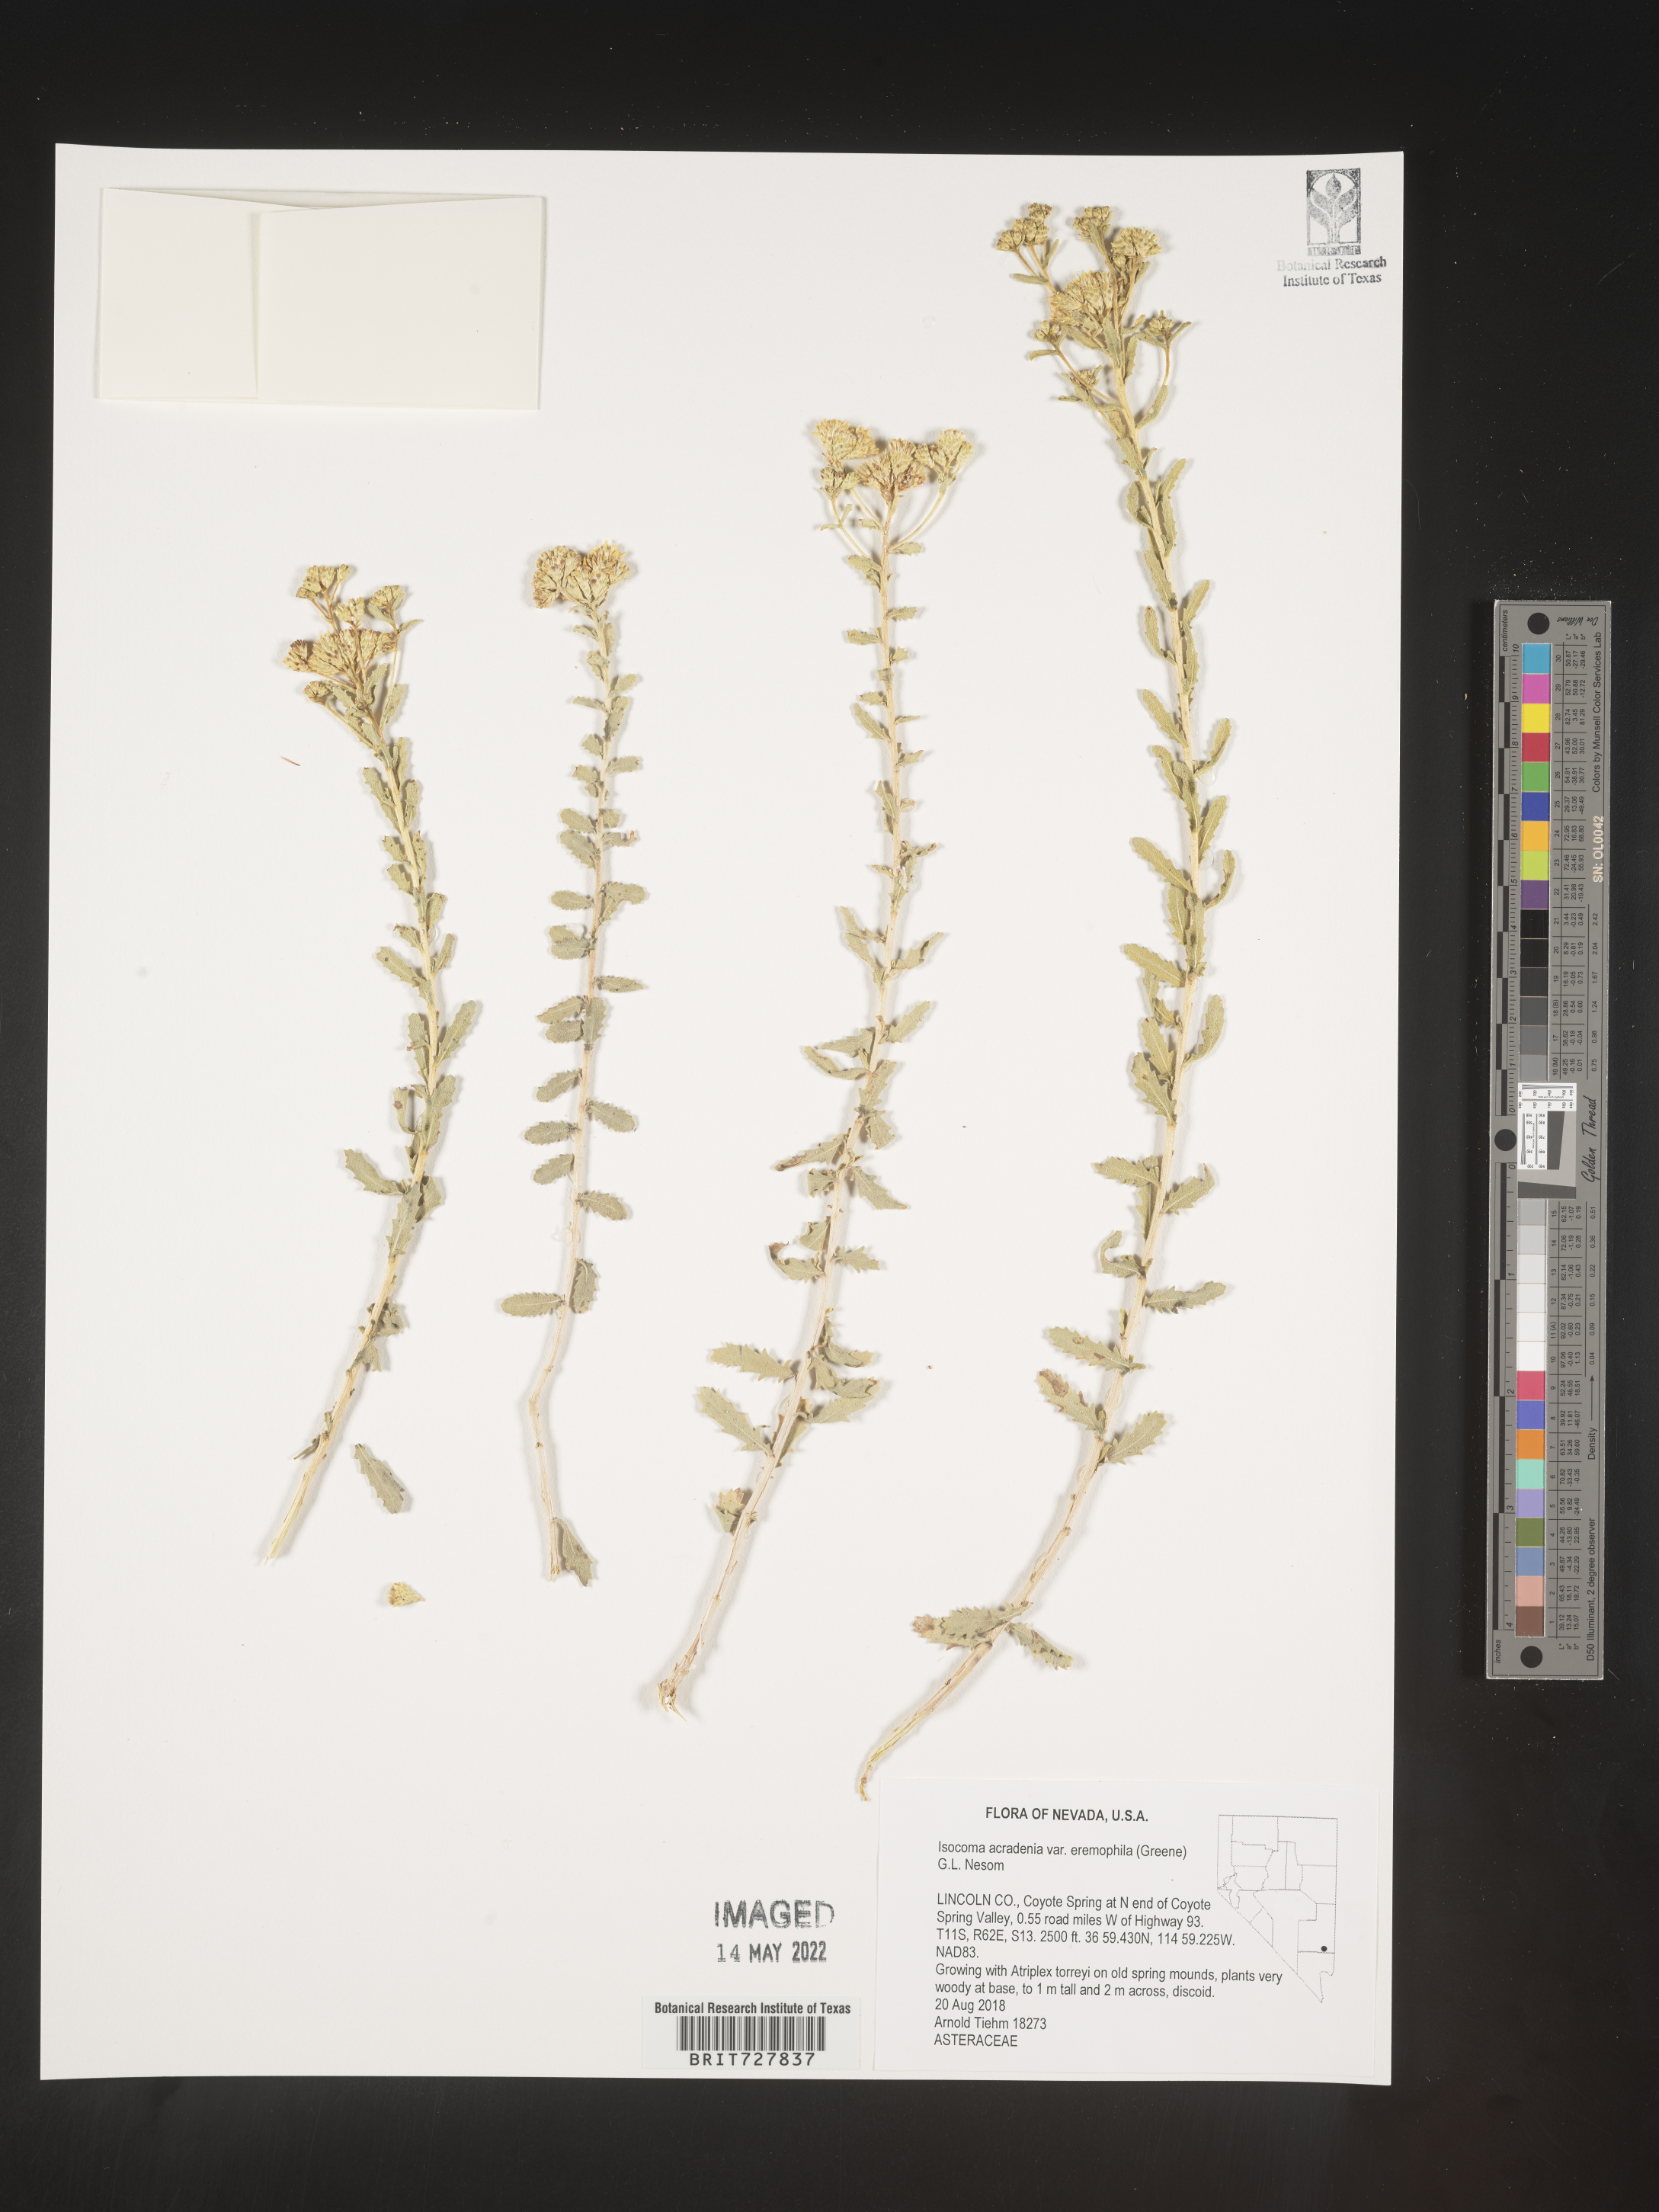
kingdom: Plantae
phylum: Tracheophyta
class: Magnoliopsida
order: Asterales
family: Asteraceae
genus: Isocoma
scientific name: Isocoma acradenia
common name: Alkali jimmyweed
